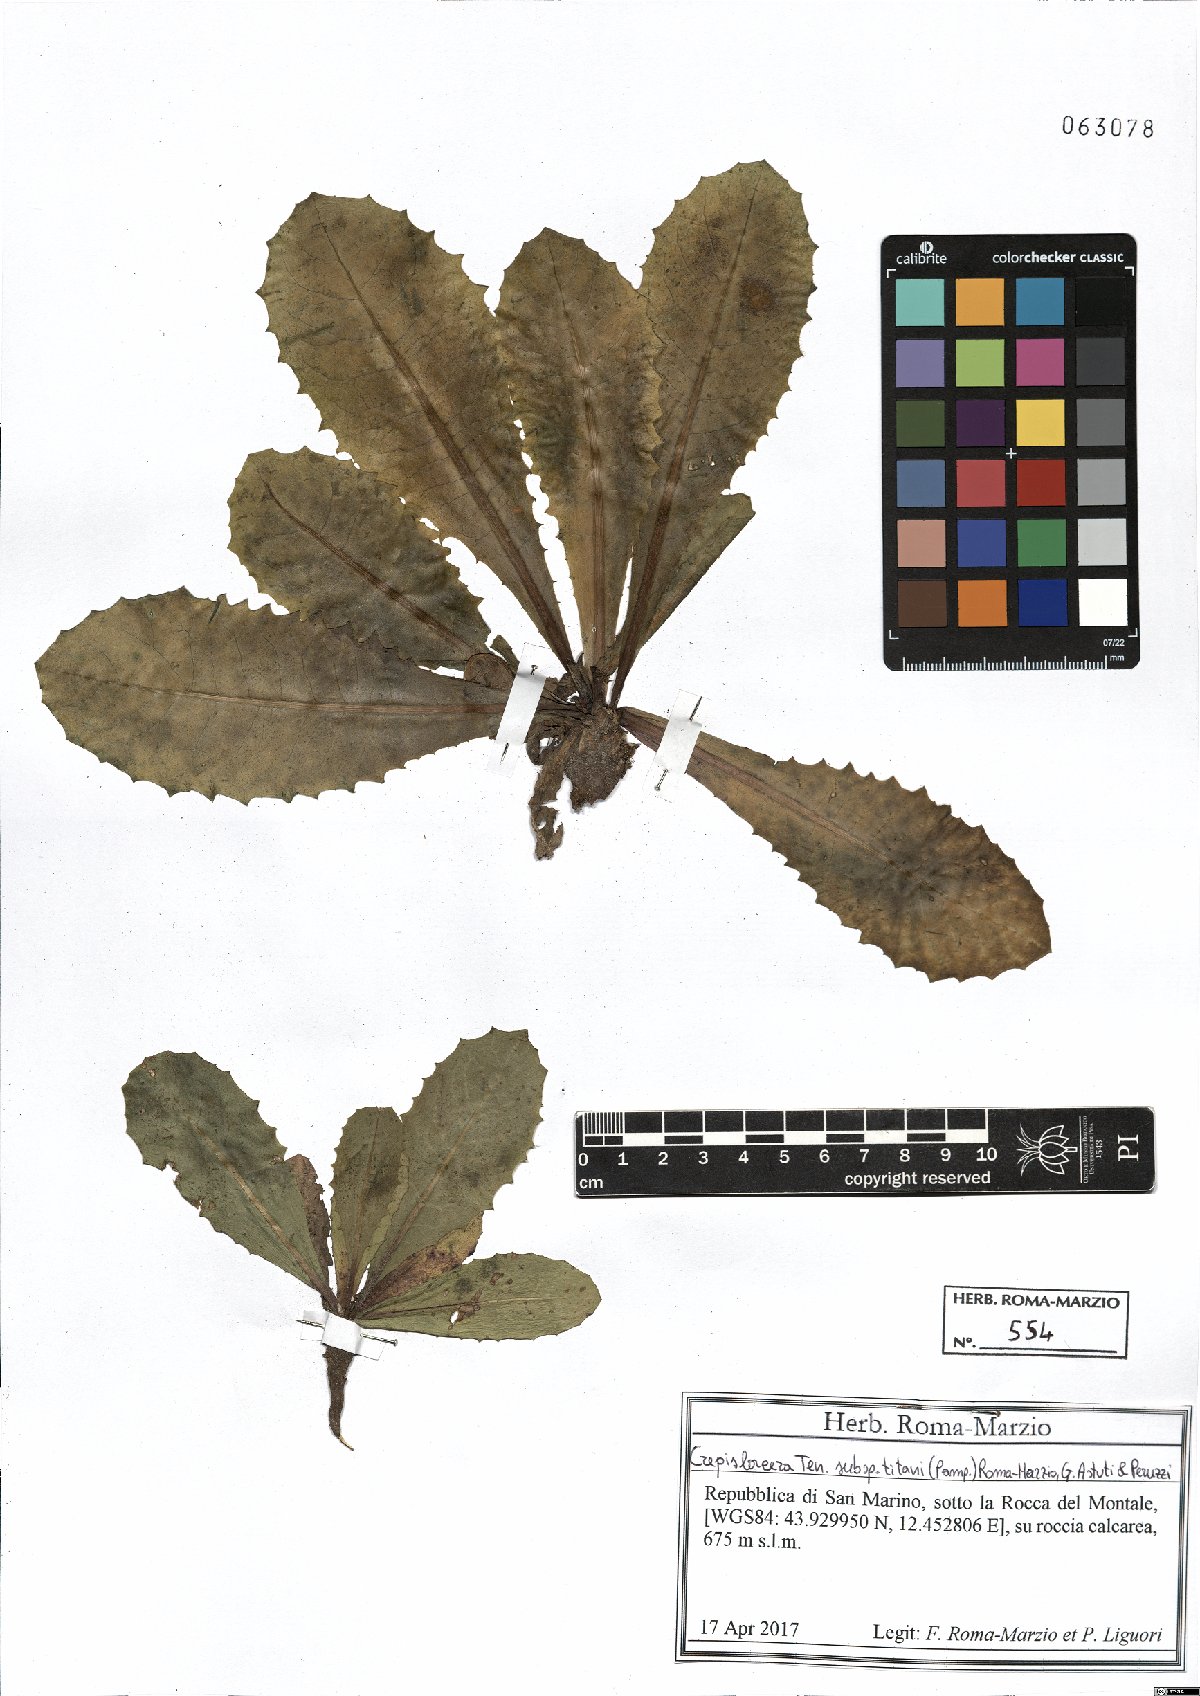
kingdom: Plantae
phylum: Tracheophyta
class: Magnoliopsida
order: Asterales
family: Asteraceae
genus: Crepis
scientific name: Crepis lacera
